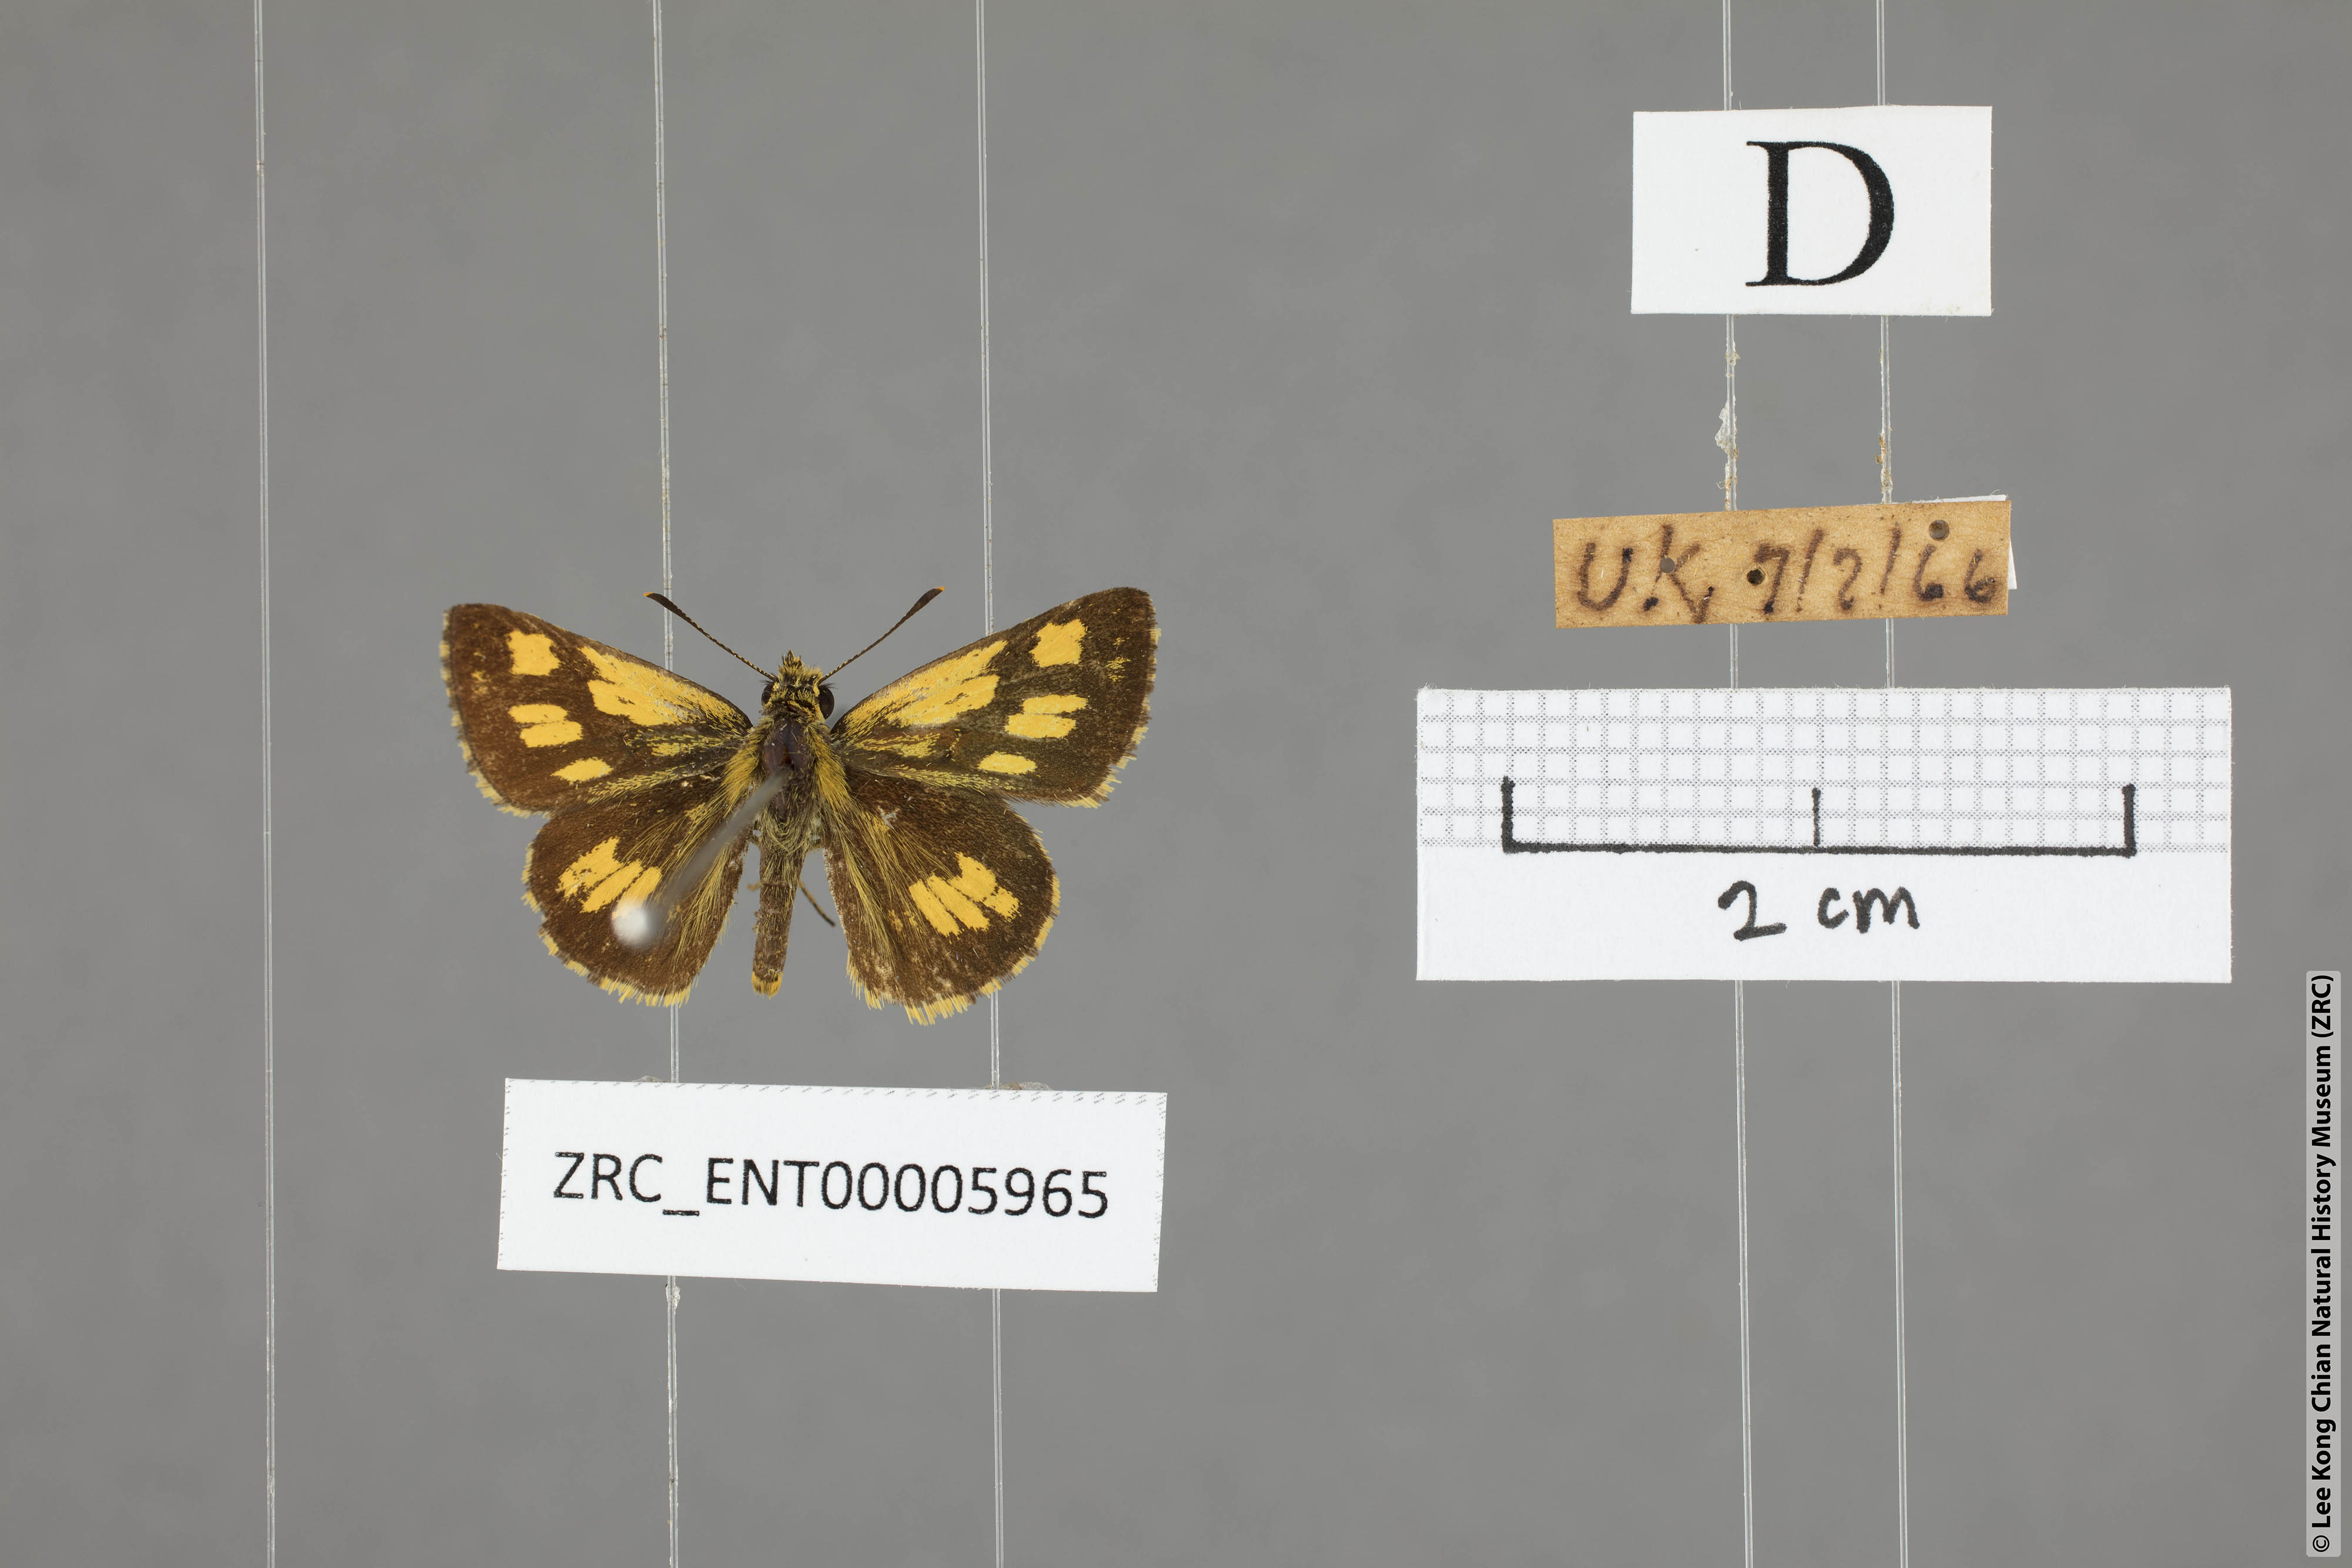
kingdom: Animalia
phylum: Arthropoda
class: Insecta
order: Lepidoptera
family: Hesperiidae
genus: Ampittia
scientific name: Ampittia dioscorides
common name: Common bush hopper
